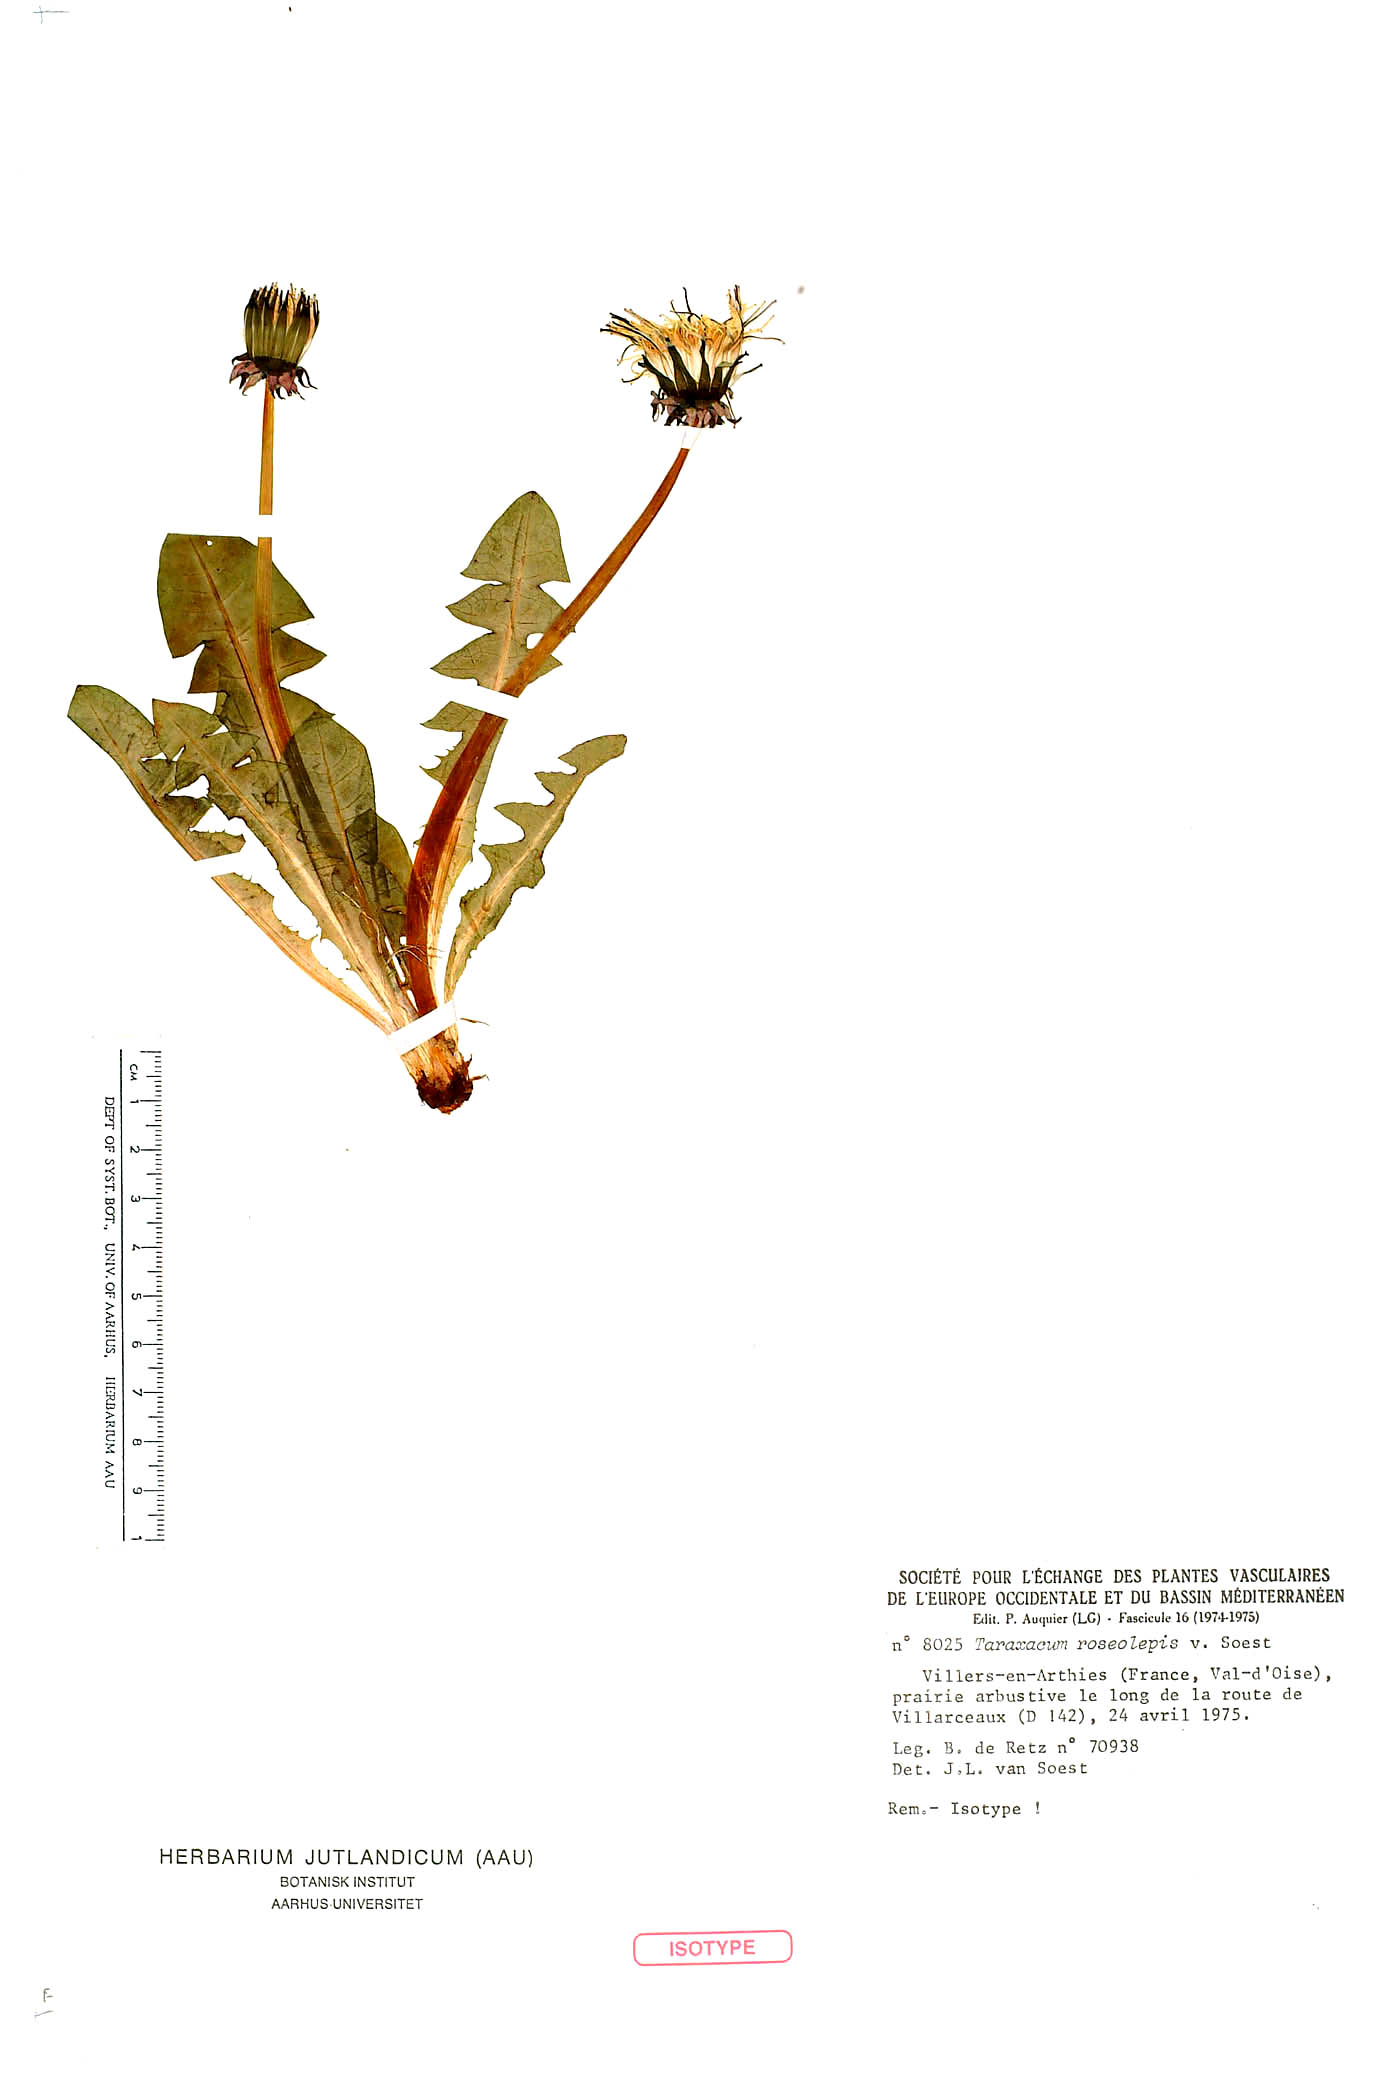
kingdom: Plantae
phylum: Tracheophyta
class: Magnoliopsida
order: Asterales
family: Asteraceae
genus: Taraxacum
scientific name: Taraxacum roseolepis
